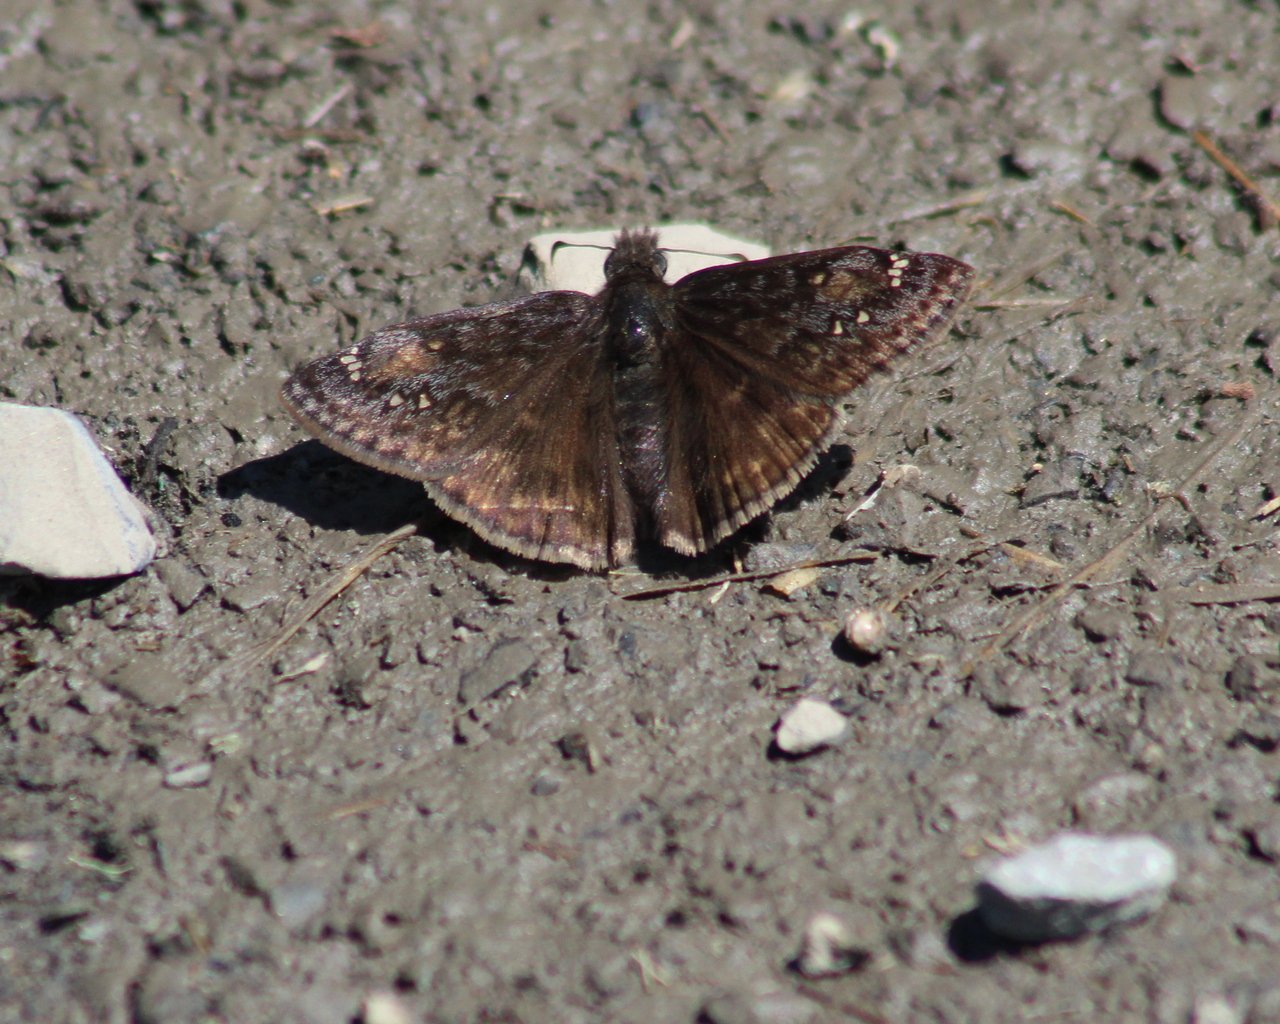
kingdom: Animalia
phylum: Arthropoda
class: Insecta
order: Lepidoptera
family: Hesperiidae
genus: Gesta
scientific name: Gesta
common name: Juvenal's Duskywing
